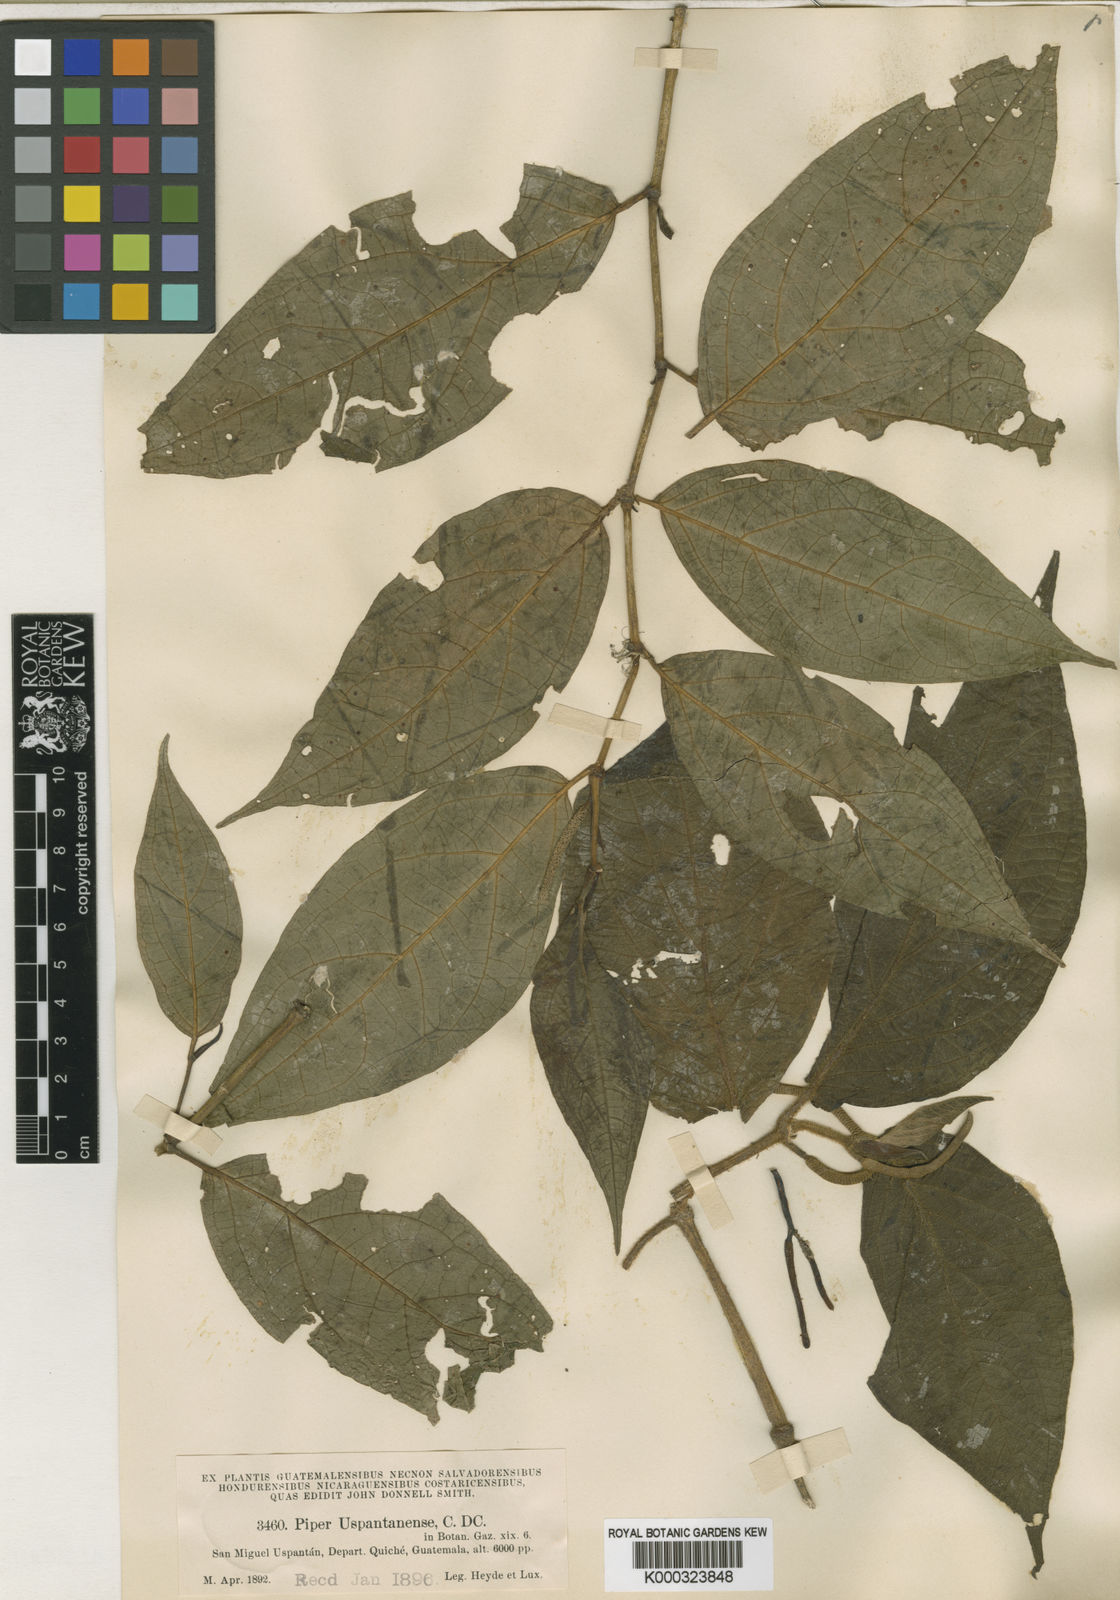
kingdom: Plantae
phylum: Tracheophyta
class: Magnoliopsida
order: Piperales
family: Piperaceae
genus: Piper
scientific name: Piper uspantanense
